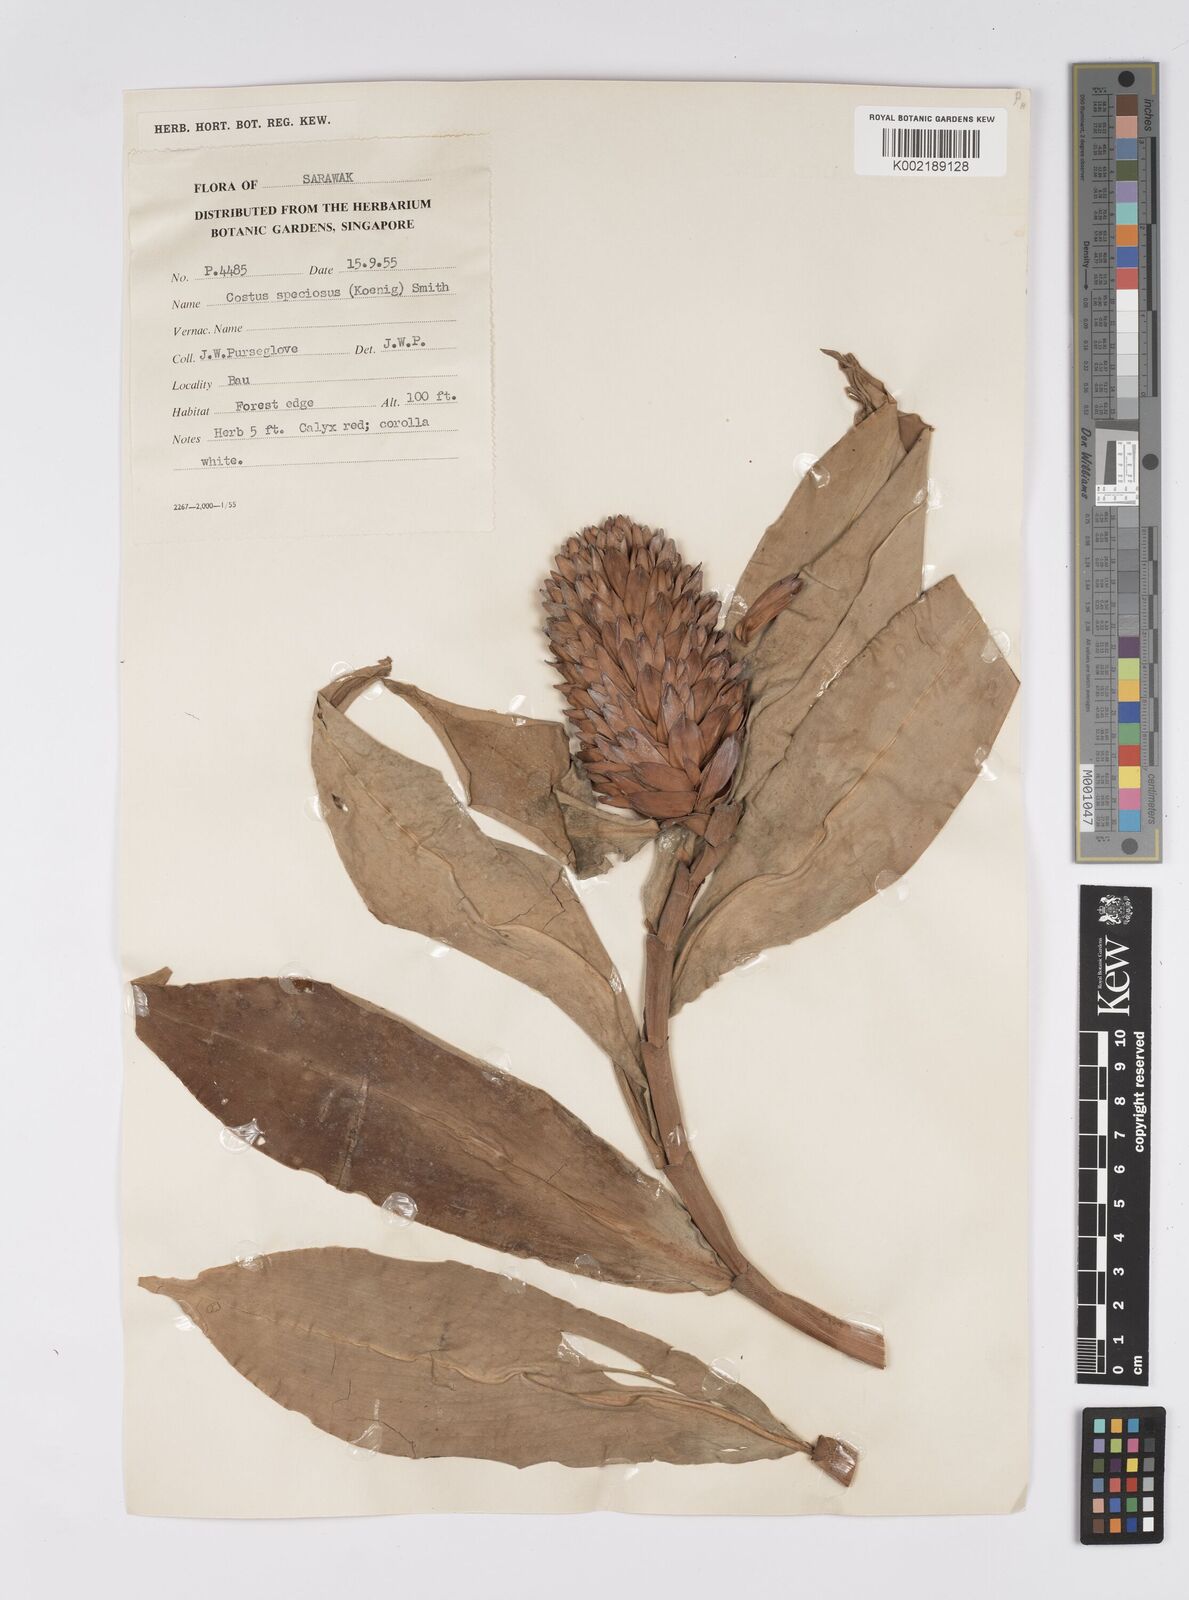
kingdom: Plantae
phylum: Tracheophyta
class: Liliopsida
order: Zingiberales
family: Costaceae
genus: Hellenia
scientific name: Hellenia speciosa
